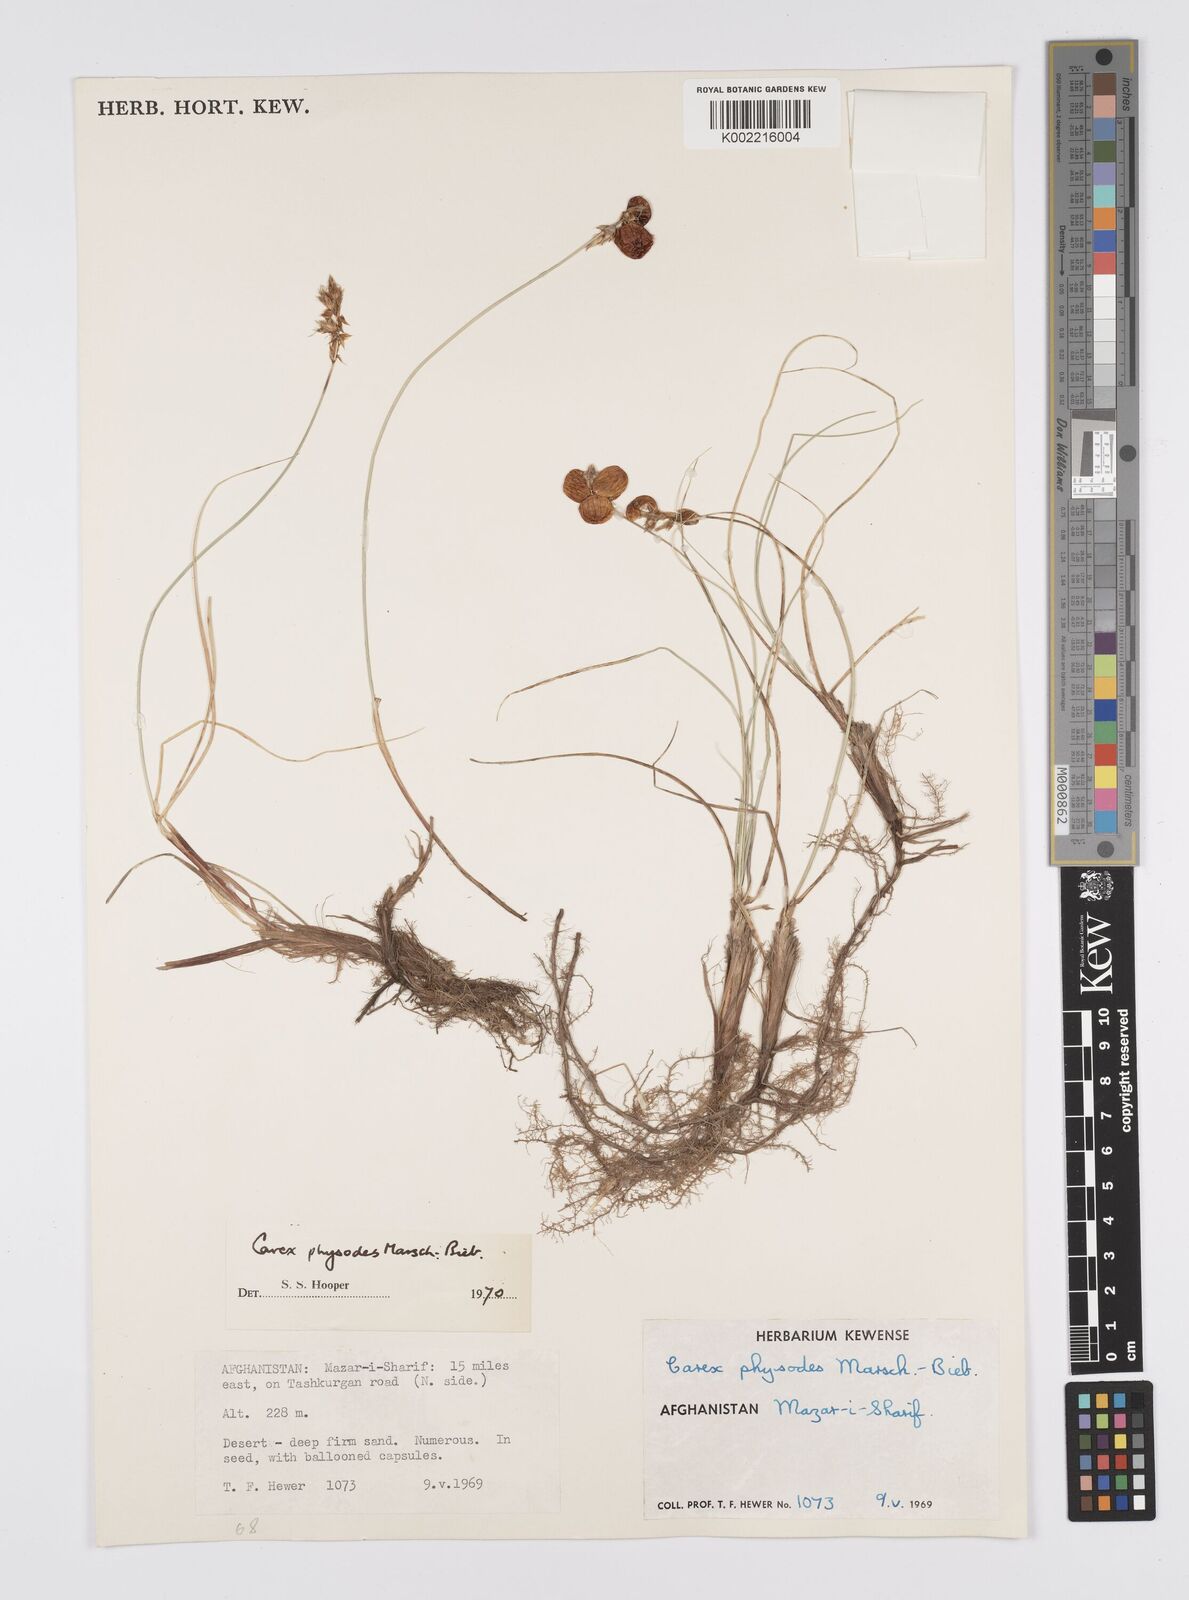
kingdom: Plantae
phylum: Tracheophyta
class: Liliopsida
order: Poales
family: Cyperaceae
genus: Carex
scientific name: Carex physodes
